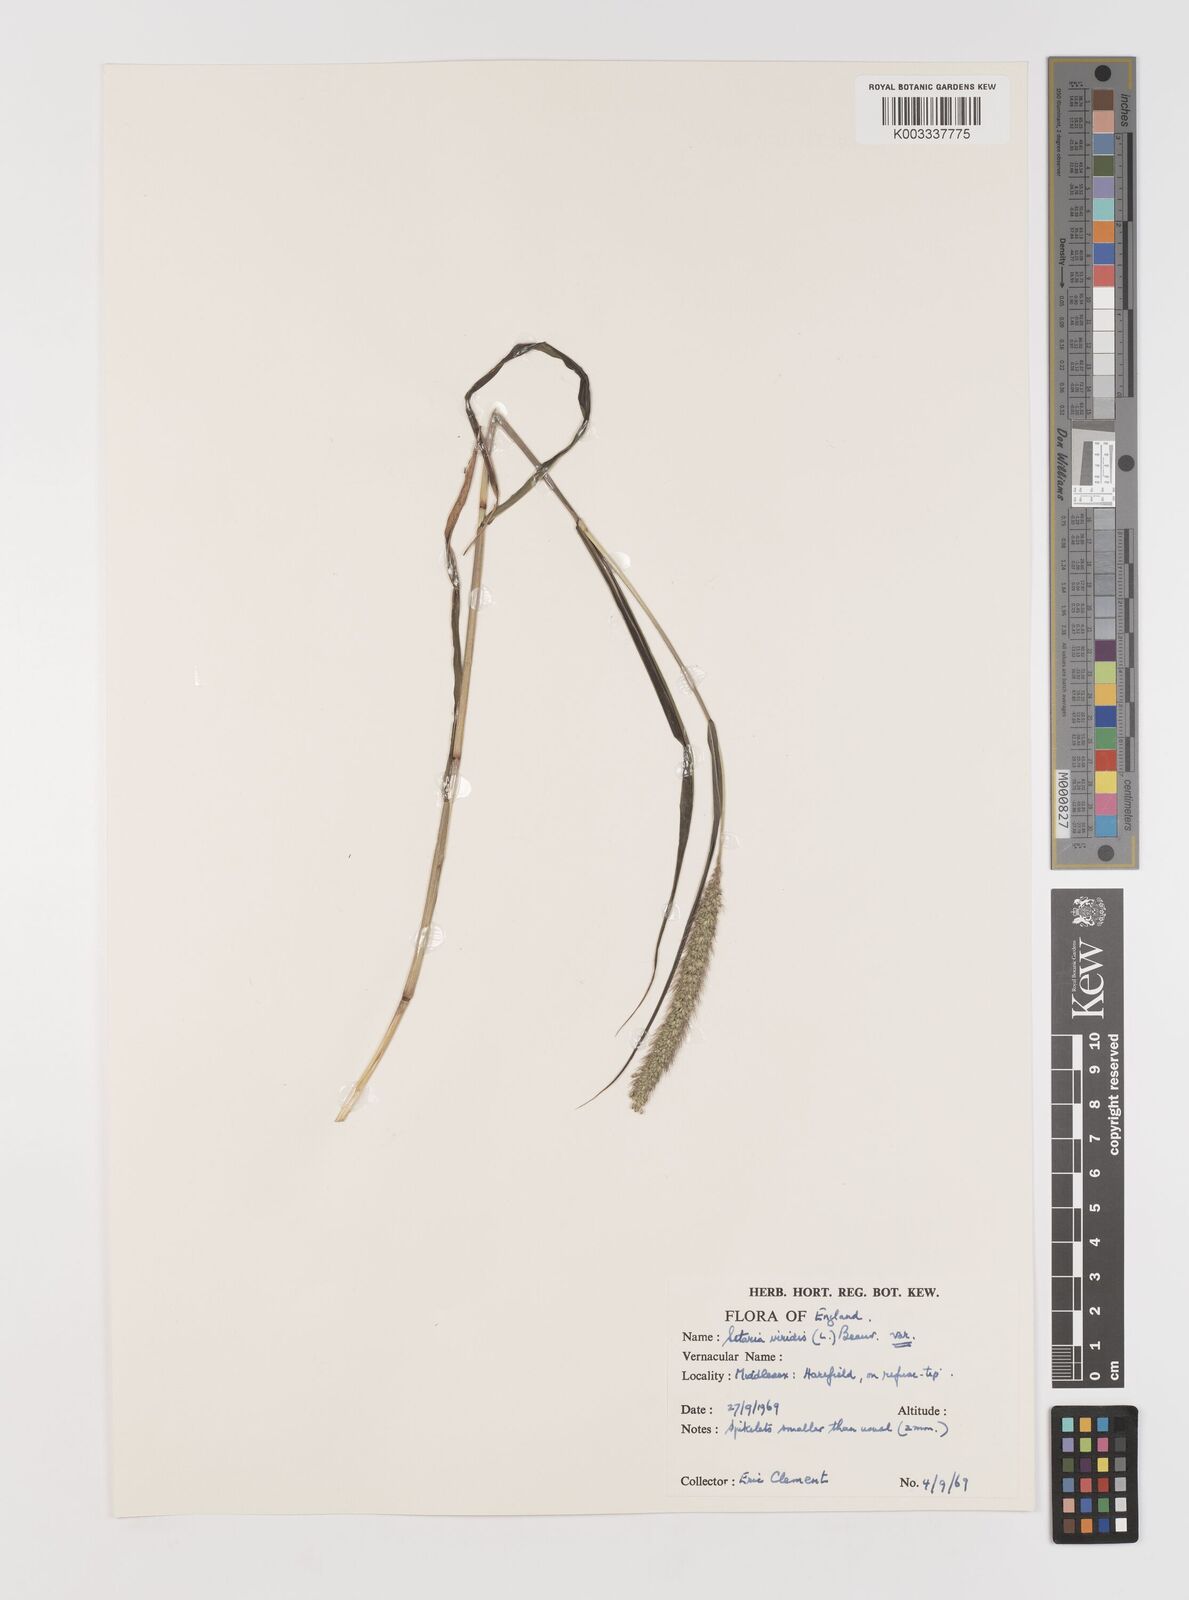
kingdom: Plantae
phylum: Tracheophyta
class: Liliopsida
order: Poales
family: Poaceae
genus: Setaria
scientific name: Setaria viridis
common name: Green bristlegrass
